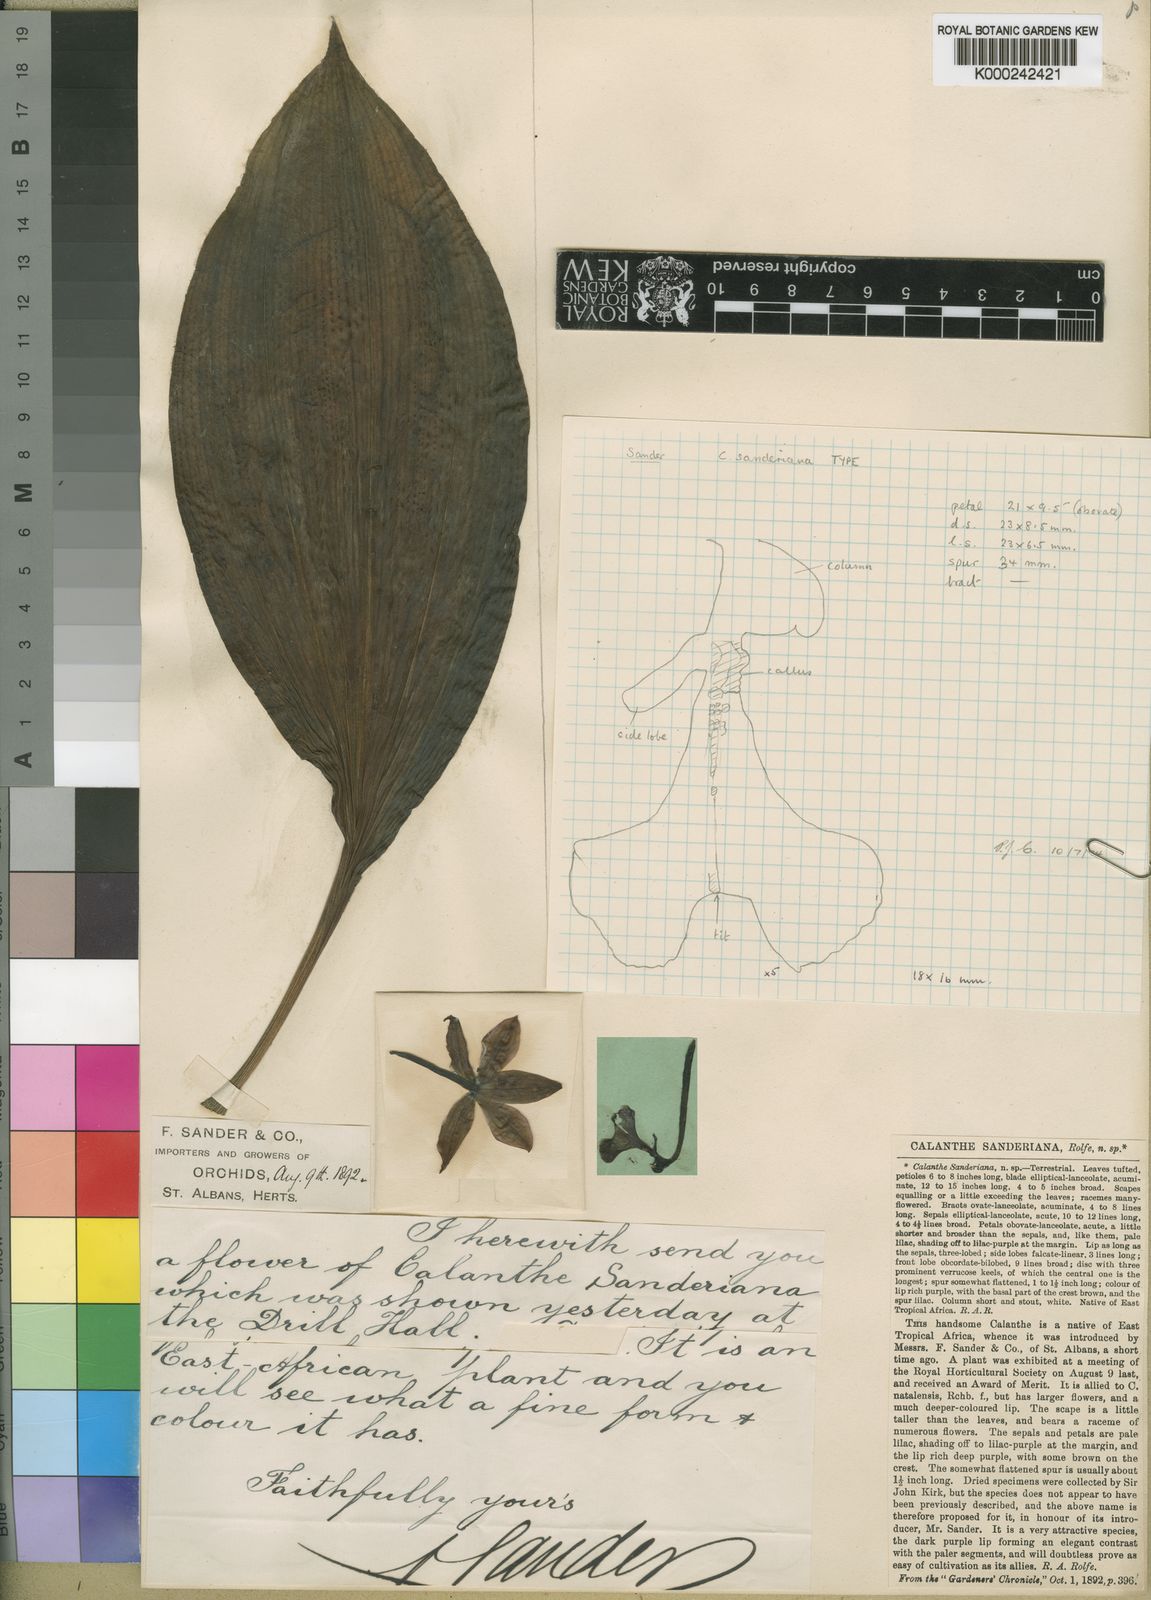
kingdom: Plantae
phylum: Tracheophyta
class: Liliopsida
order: Asparagales
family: Orchidaceae
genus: Calanthe
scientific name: Calanthe sylvatica
